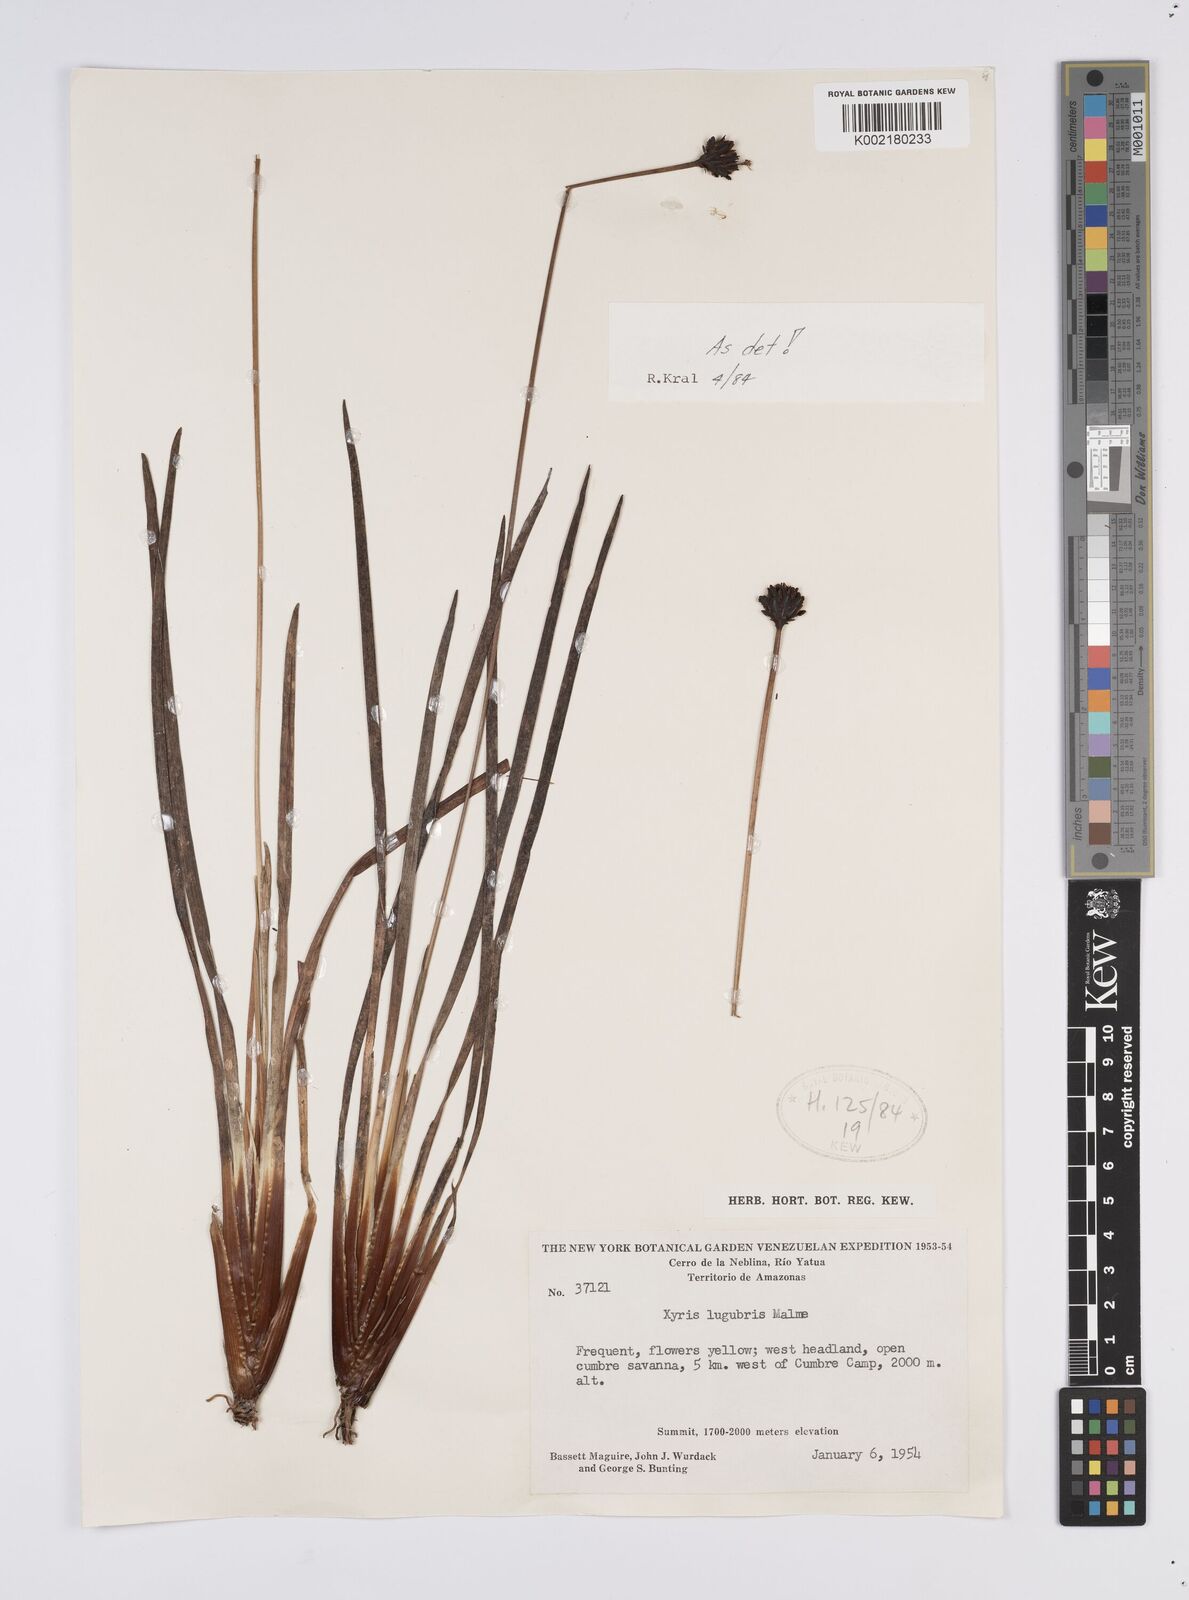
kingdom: Plantae
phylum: Tracheophyta
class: Liliopsida
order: Poales
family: Xyridaceae
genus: Xyris
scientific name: Xyris lugubris
